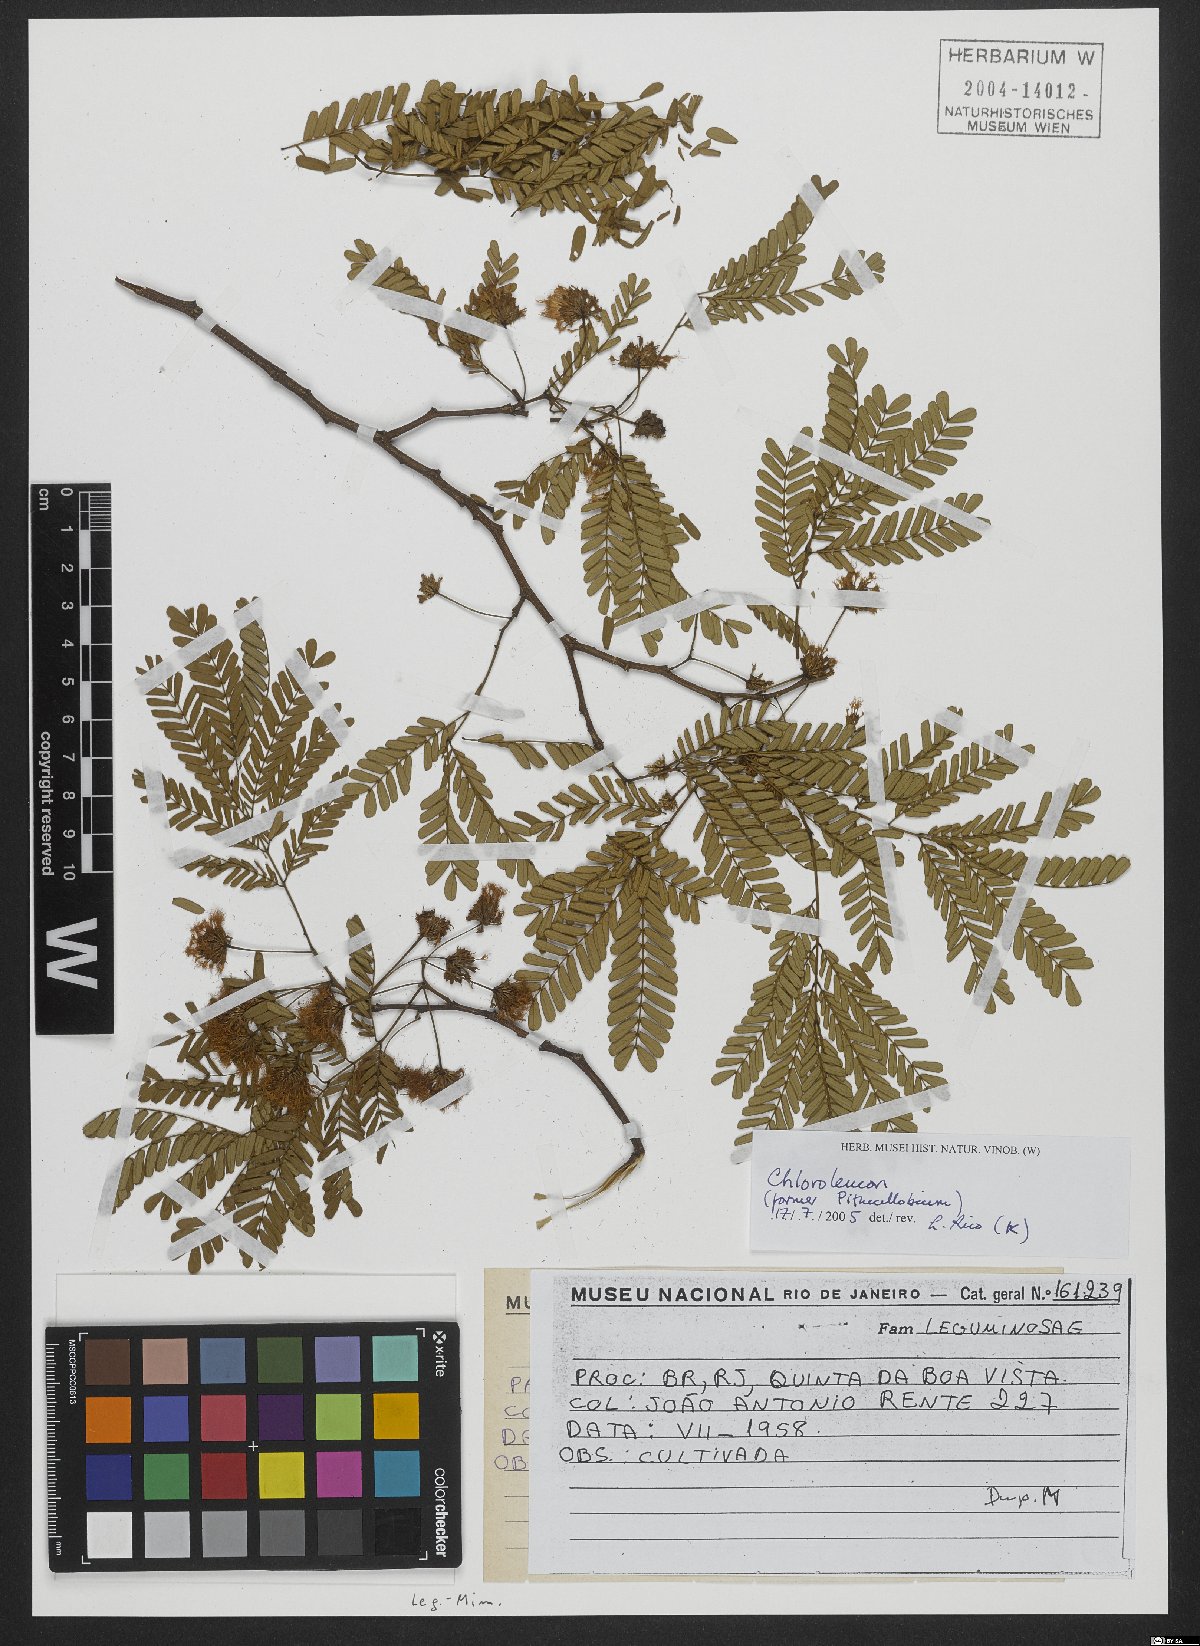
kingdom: Plantae
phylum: Tracheophyta
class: Magnoliopsida
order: Fabales
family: Fabaceae
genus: Chloroleucon
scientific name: Chloroleucon
